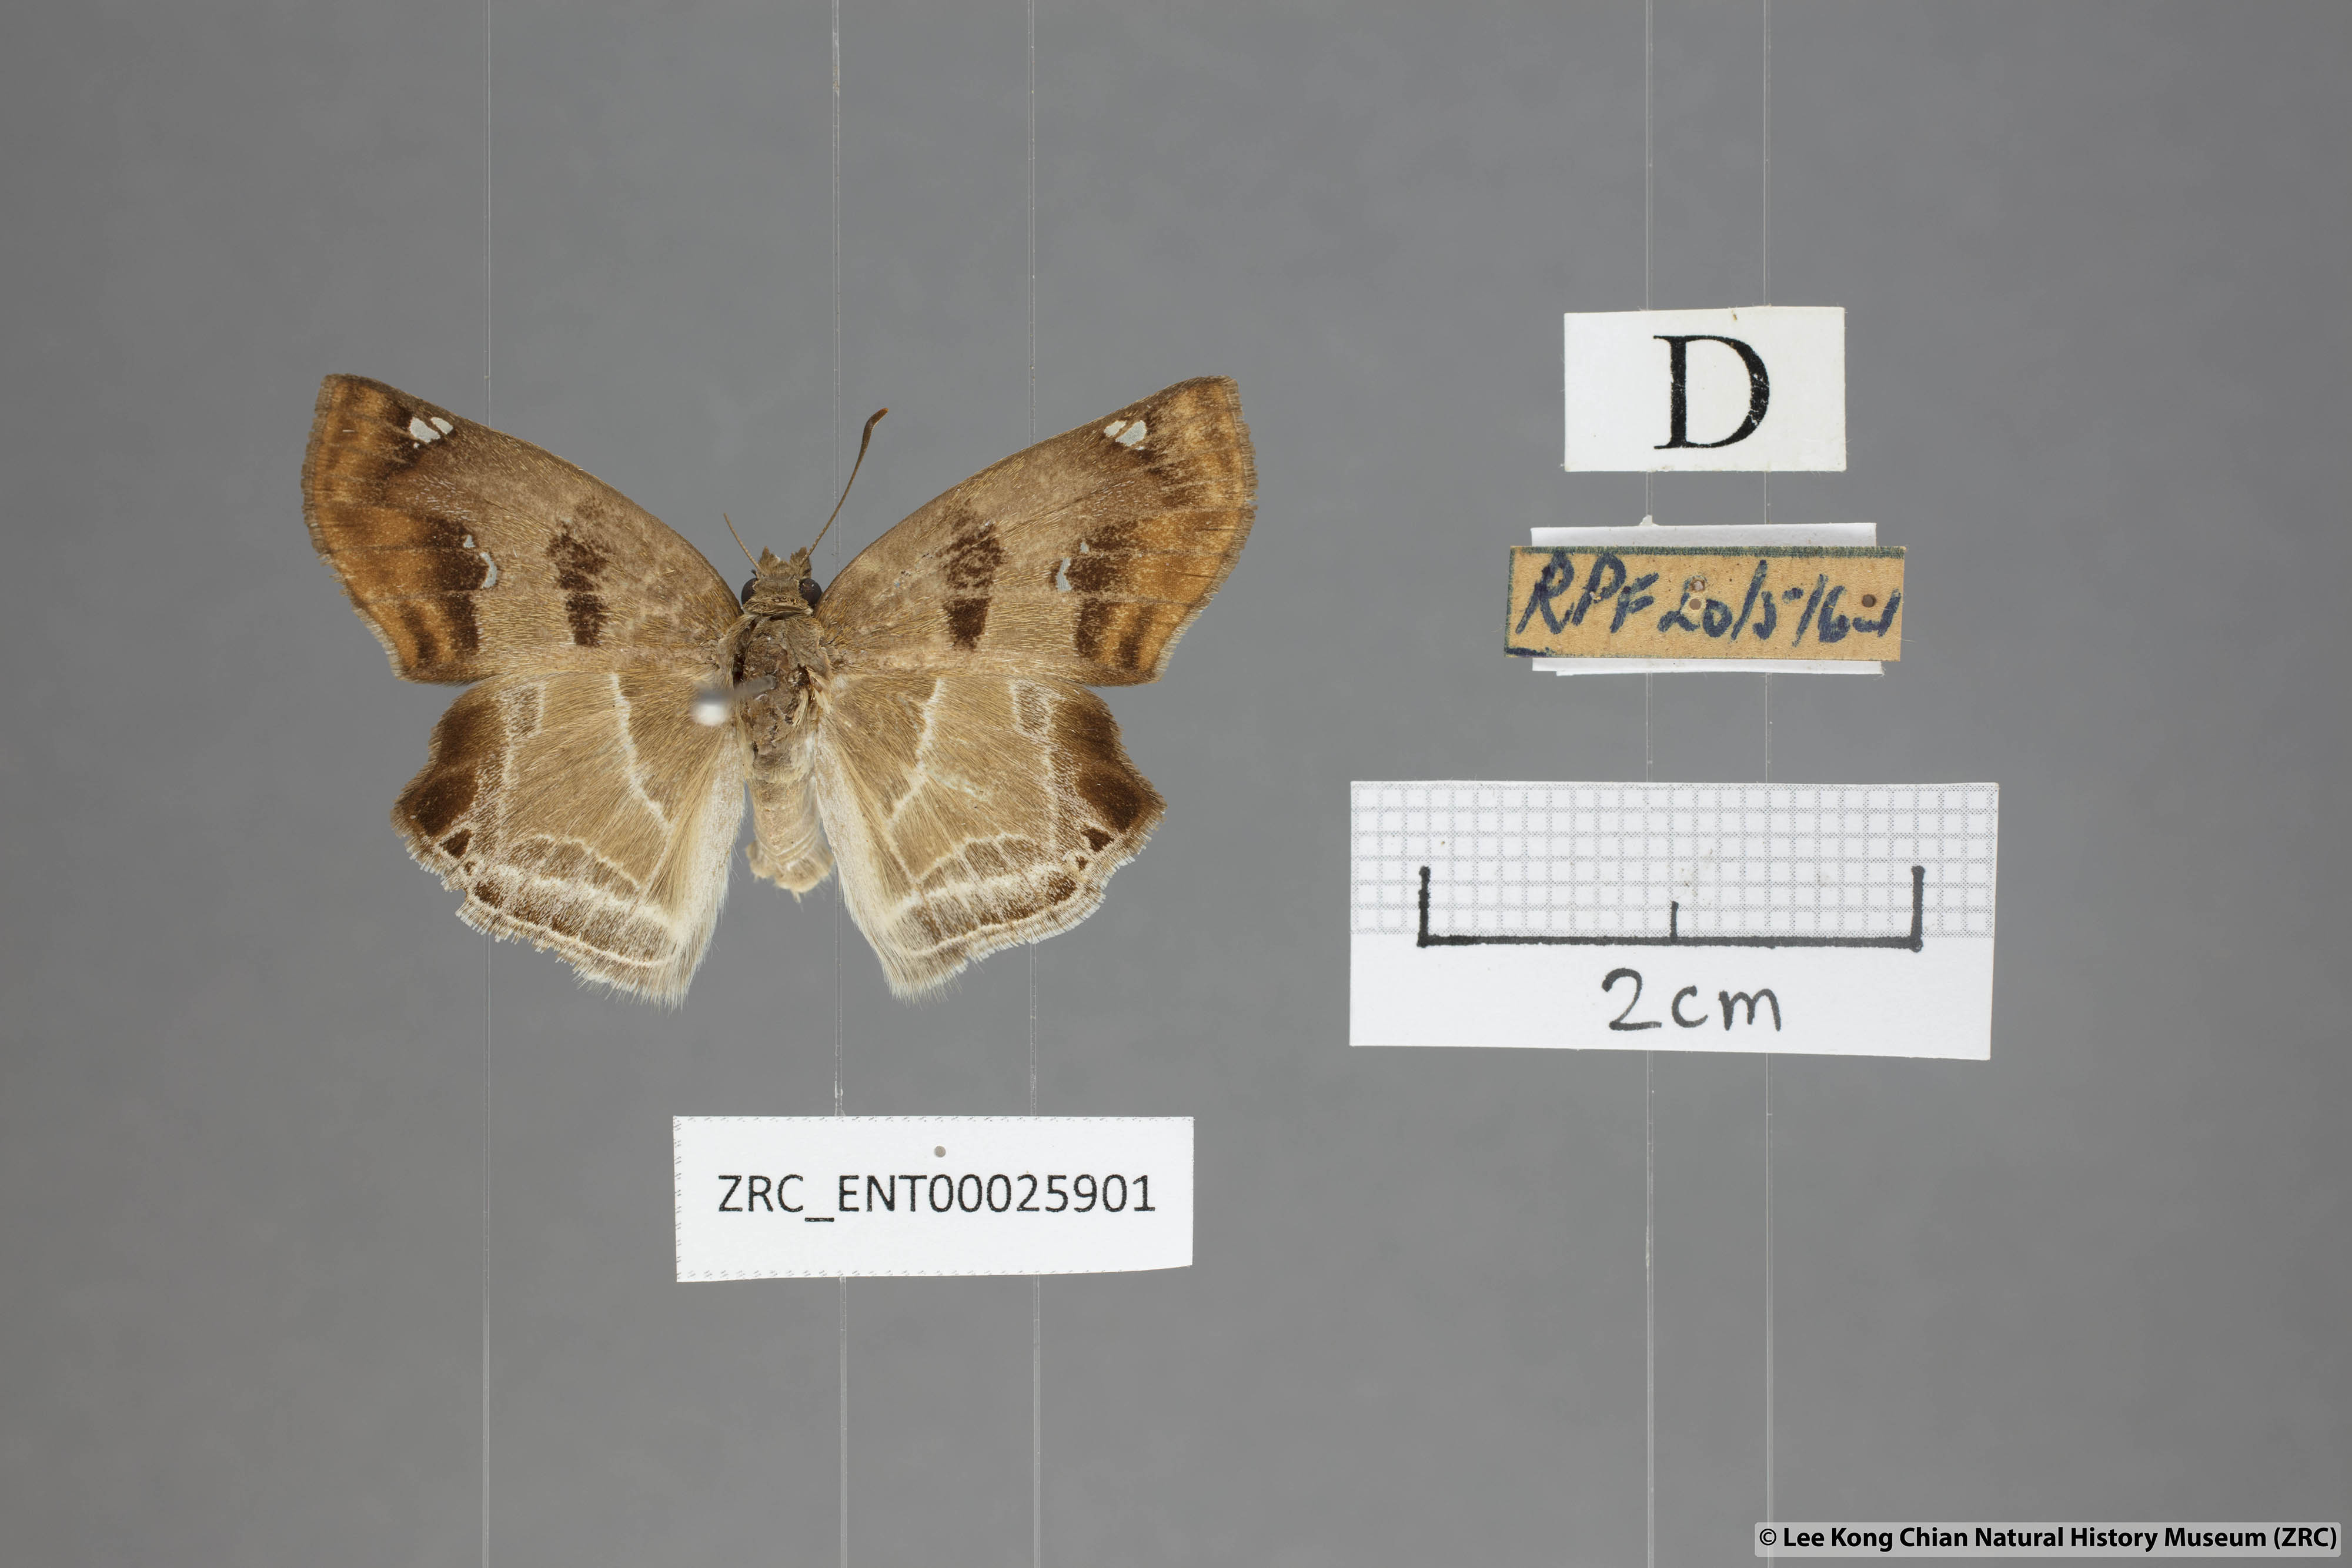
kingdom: Animalia
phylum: Arthropoda
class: Insecta
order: Lepidoptera
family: Hesperiidae
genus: Odontoptilum
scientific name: Odontoptilum angulata
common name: Chestnut banded angle
